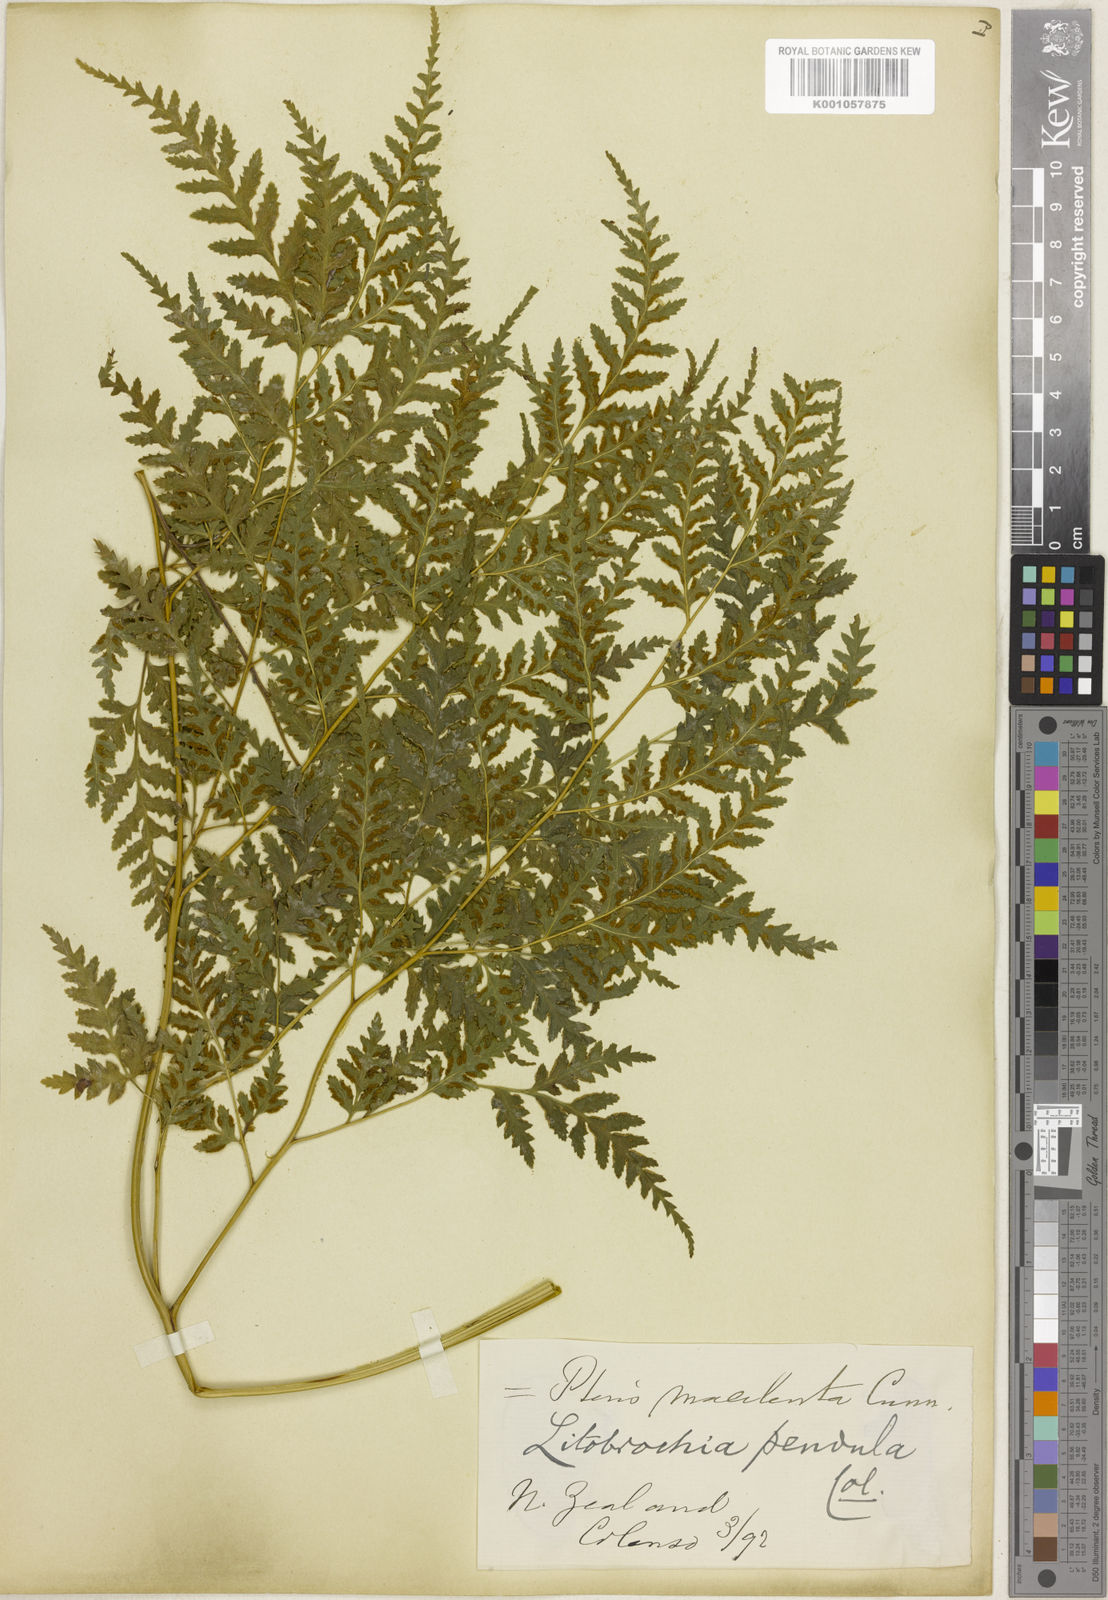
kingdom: Plantae
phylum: Tracheophyta
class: Polypodiopsida
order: Polypodiales
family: Pteridaceae
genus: Pteris
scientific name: Pteris macilenta
